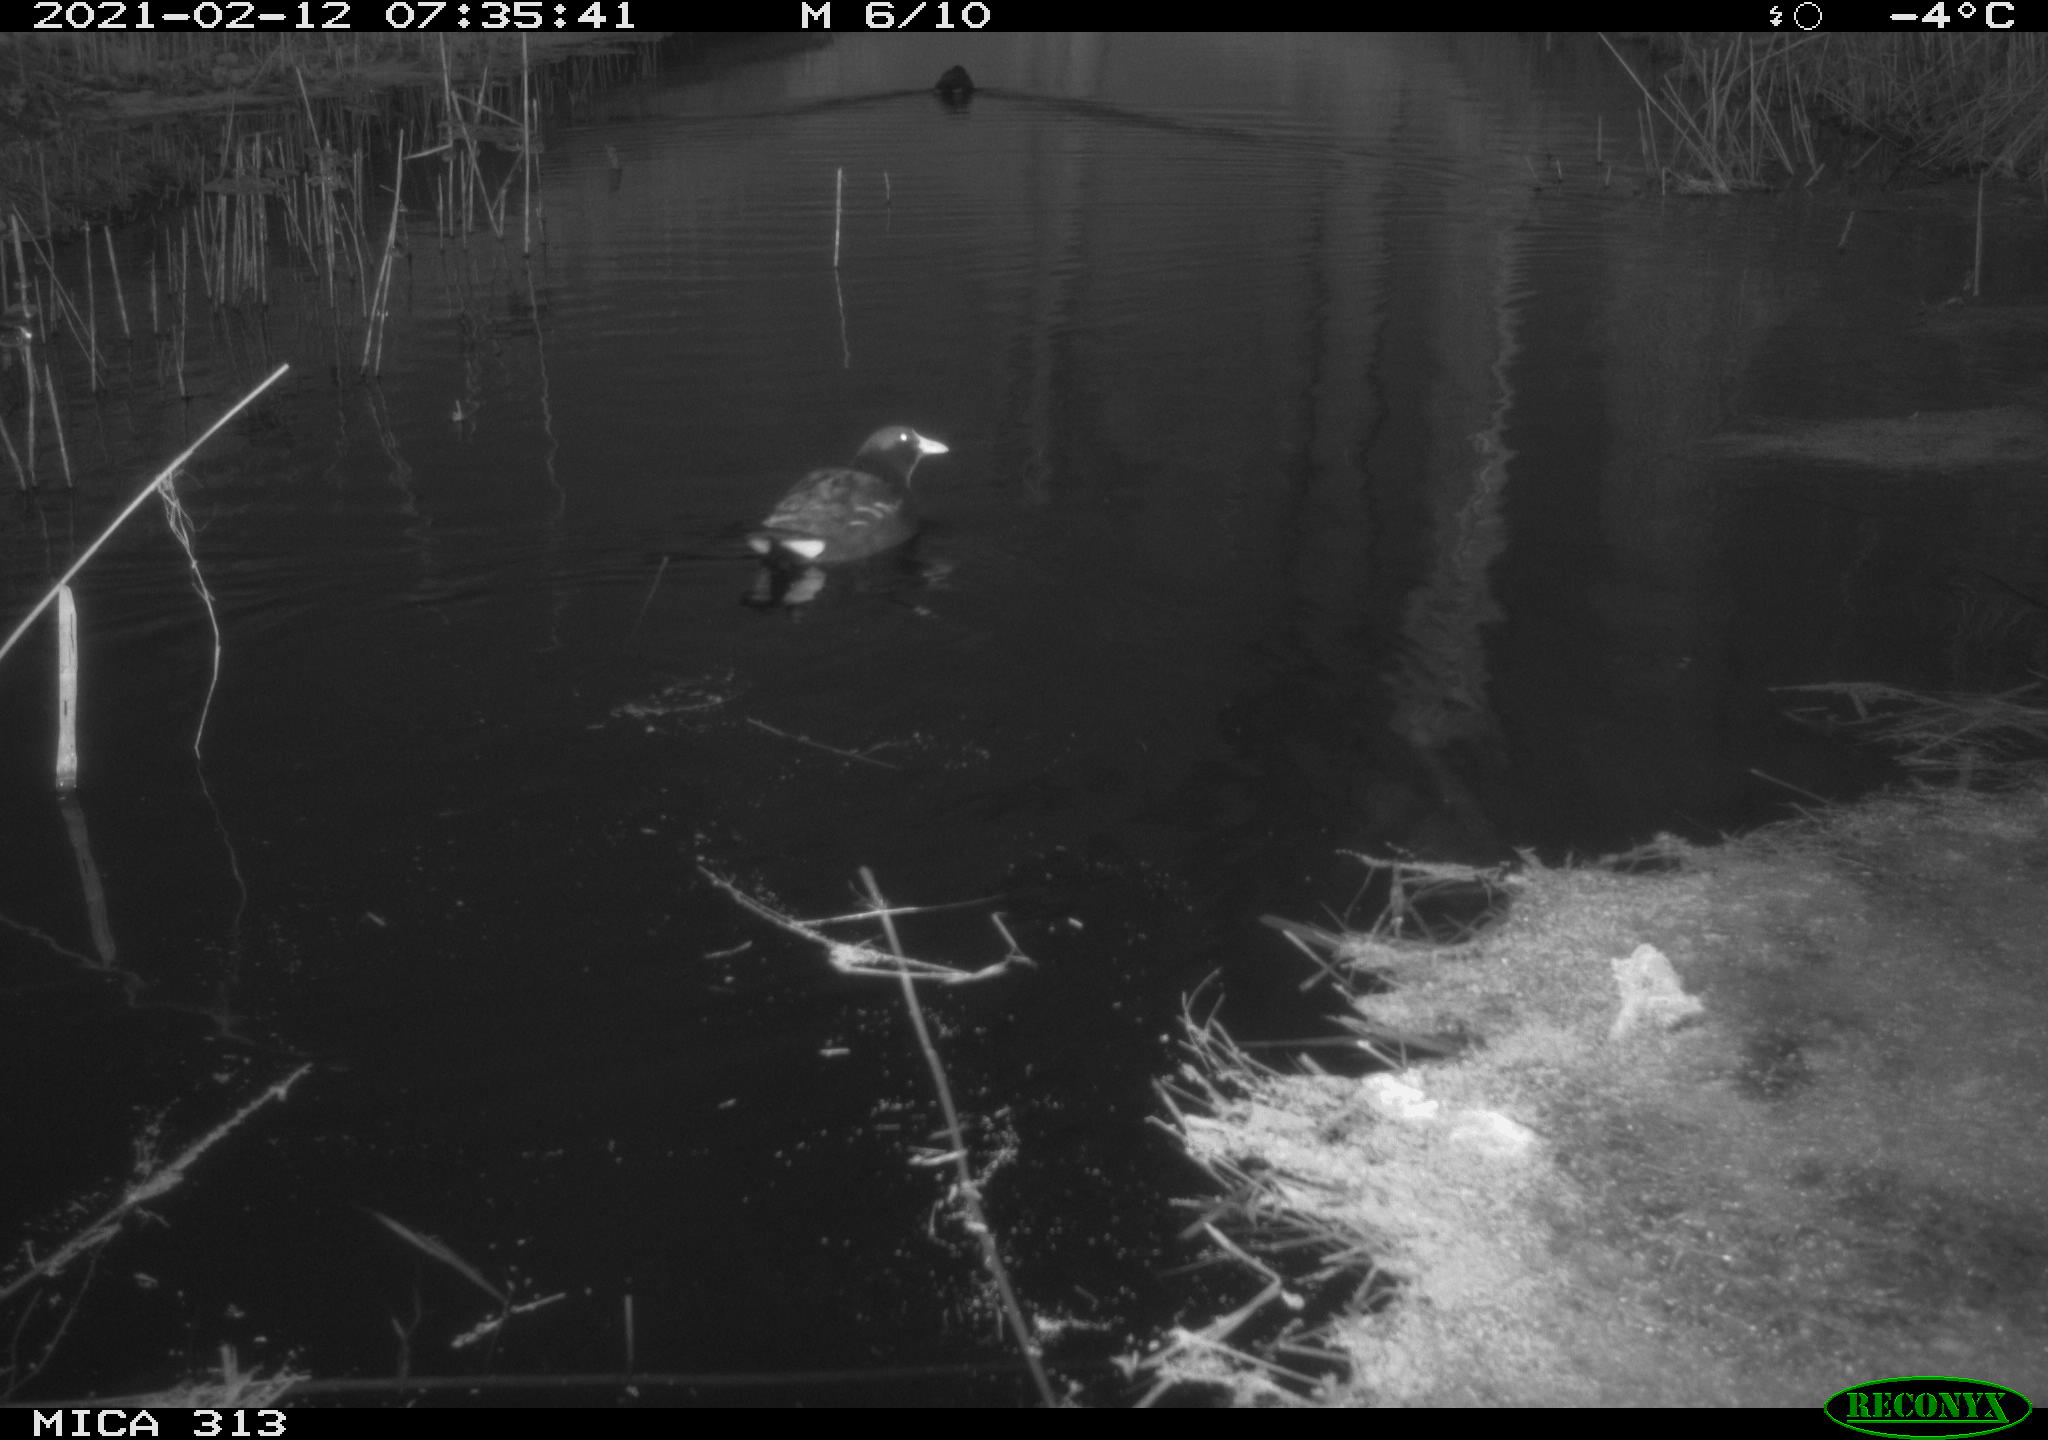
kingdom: Animalia
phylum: Chordata
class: Aves
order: Gruiformes
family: Rallidae
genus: Gallinula
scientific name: Gallinula chloropus
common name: Common moorhen
